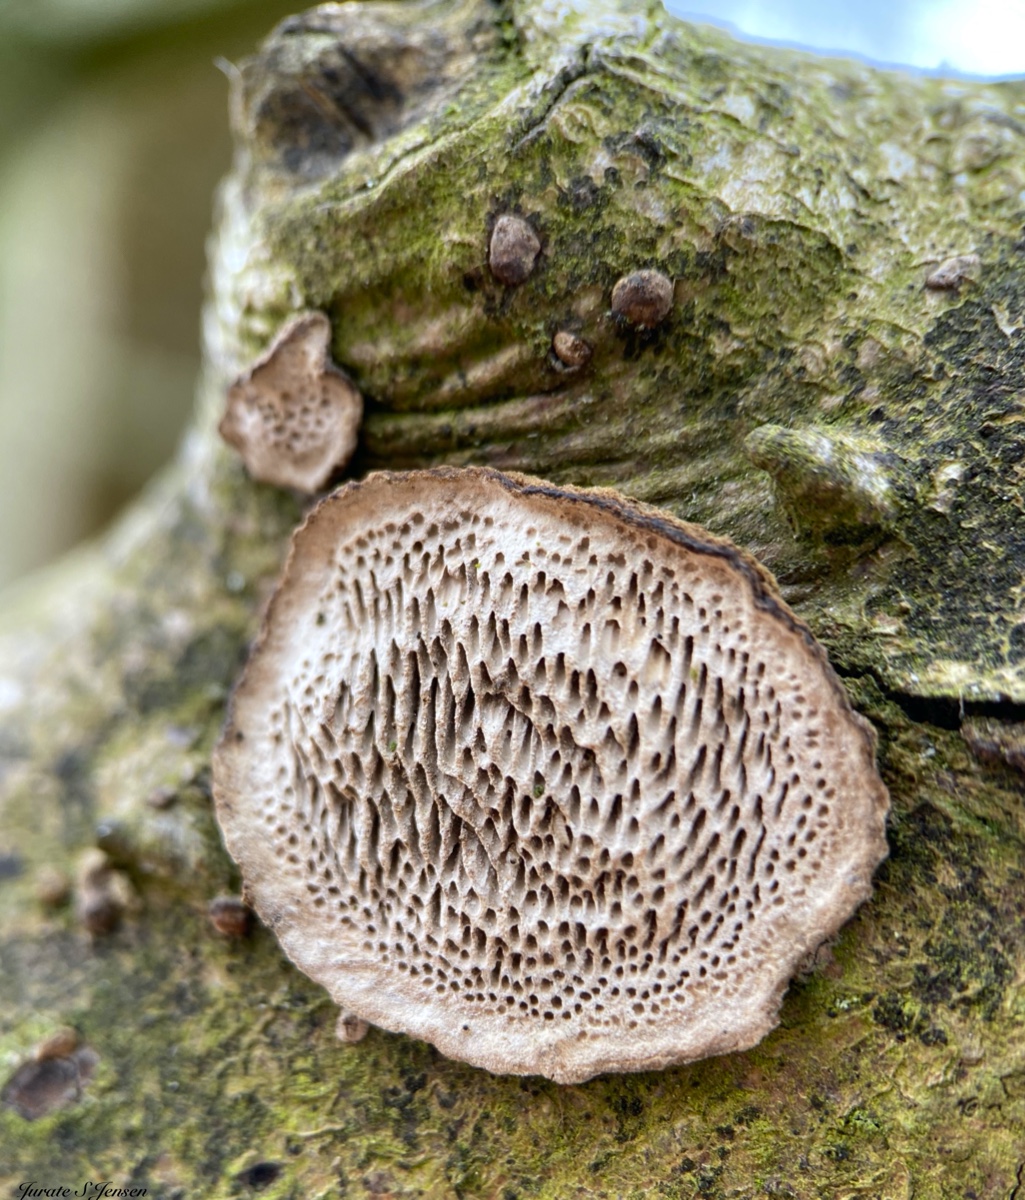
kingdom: Fungi
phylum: Basidiomycota
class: Agaricomycetes
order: Polyporales
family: Polyporaceae
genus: Podofomes
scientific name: Podofomes mollis
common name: blød begporesvamp
